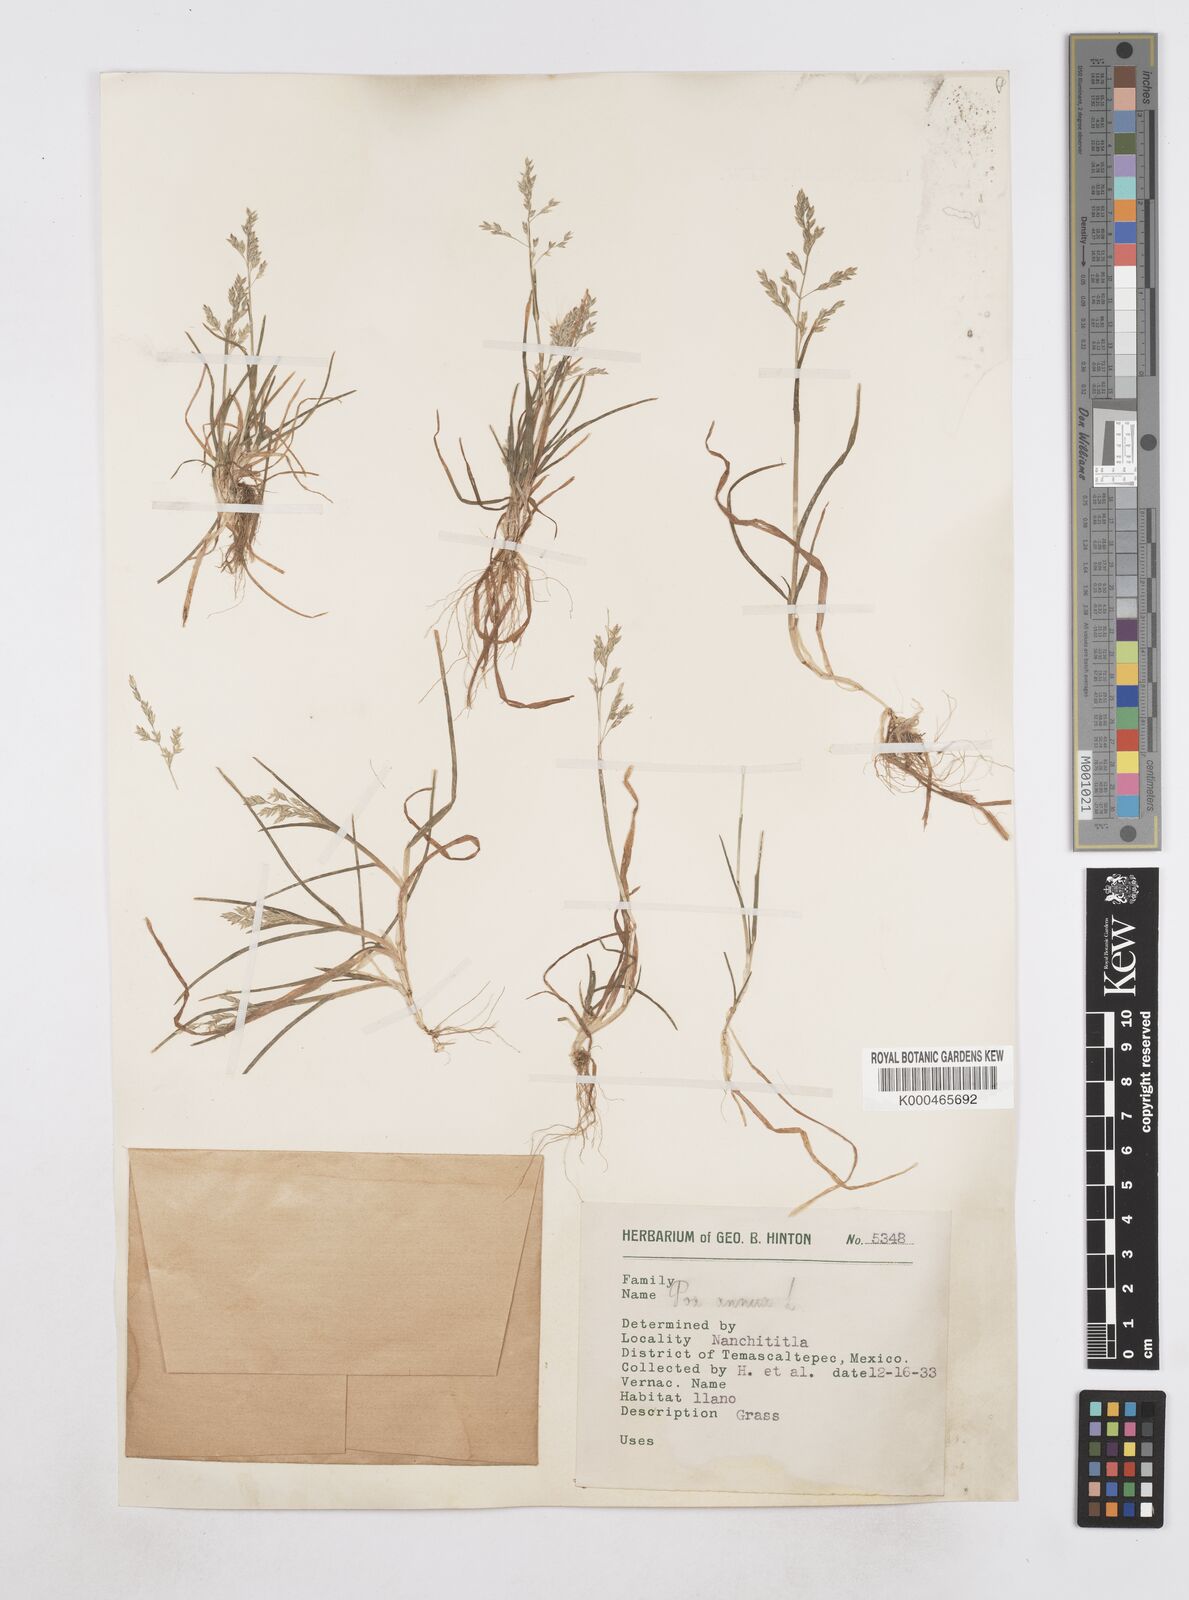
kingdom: Plantae
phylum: Tracheophyta
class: Liliopsida
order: Poales
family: Poaceae
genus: Poa
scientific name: Poa annua
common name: Annual bluegrass
